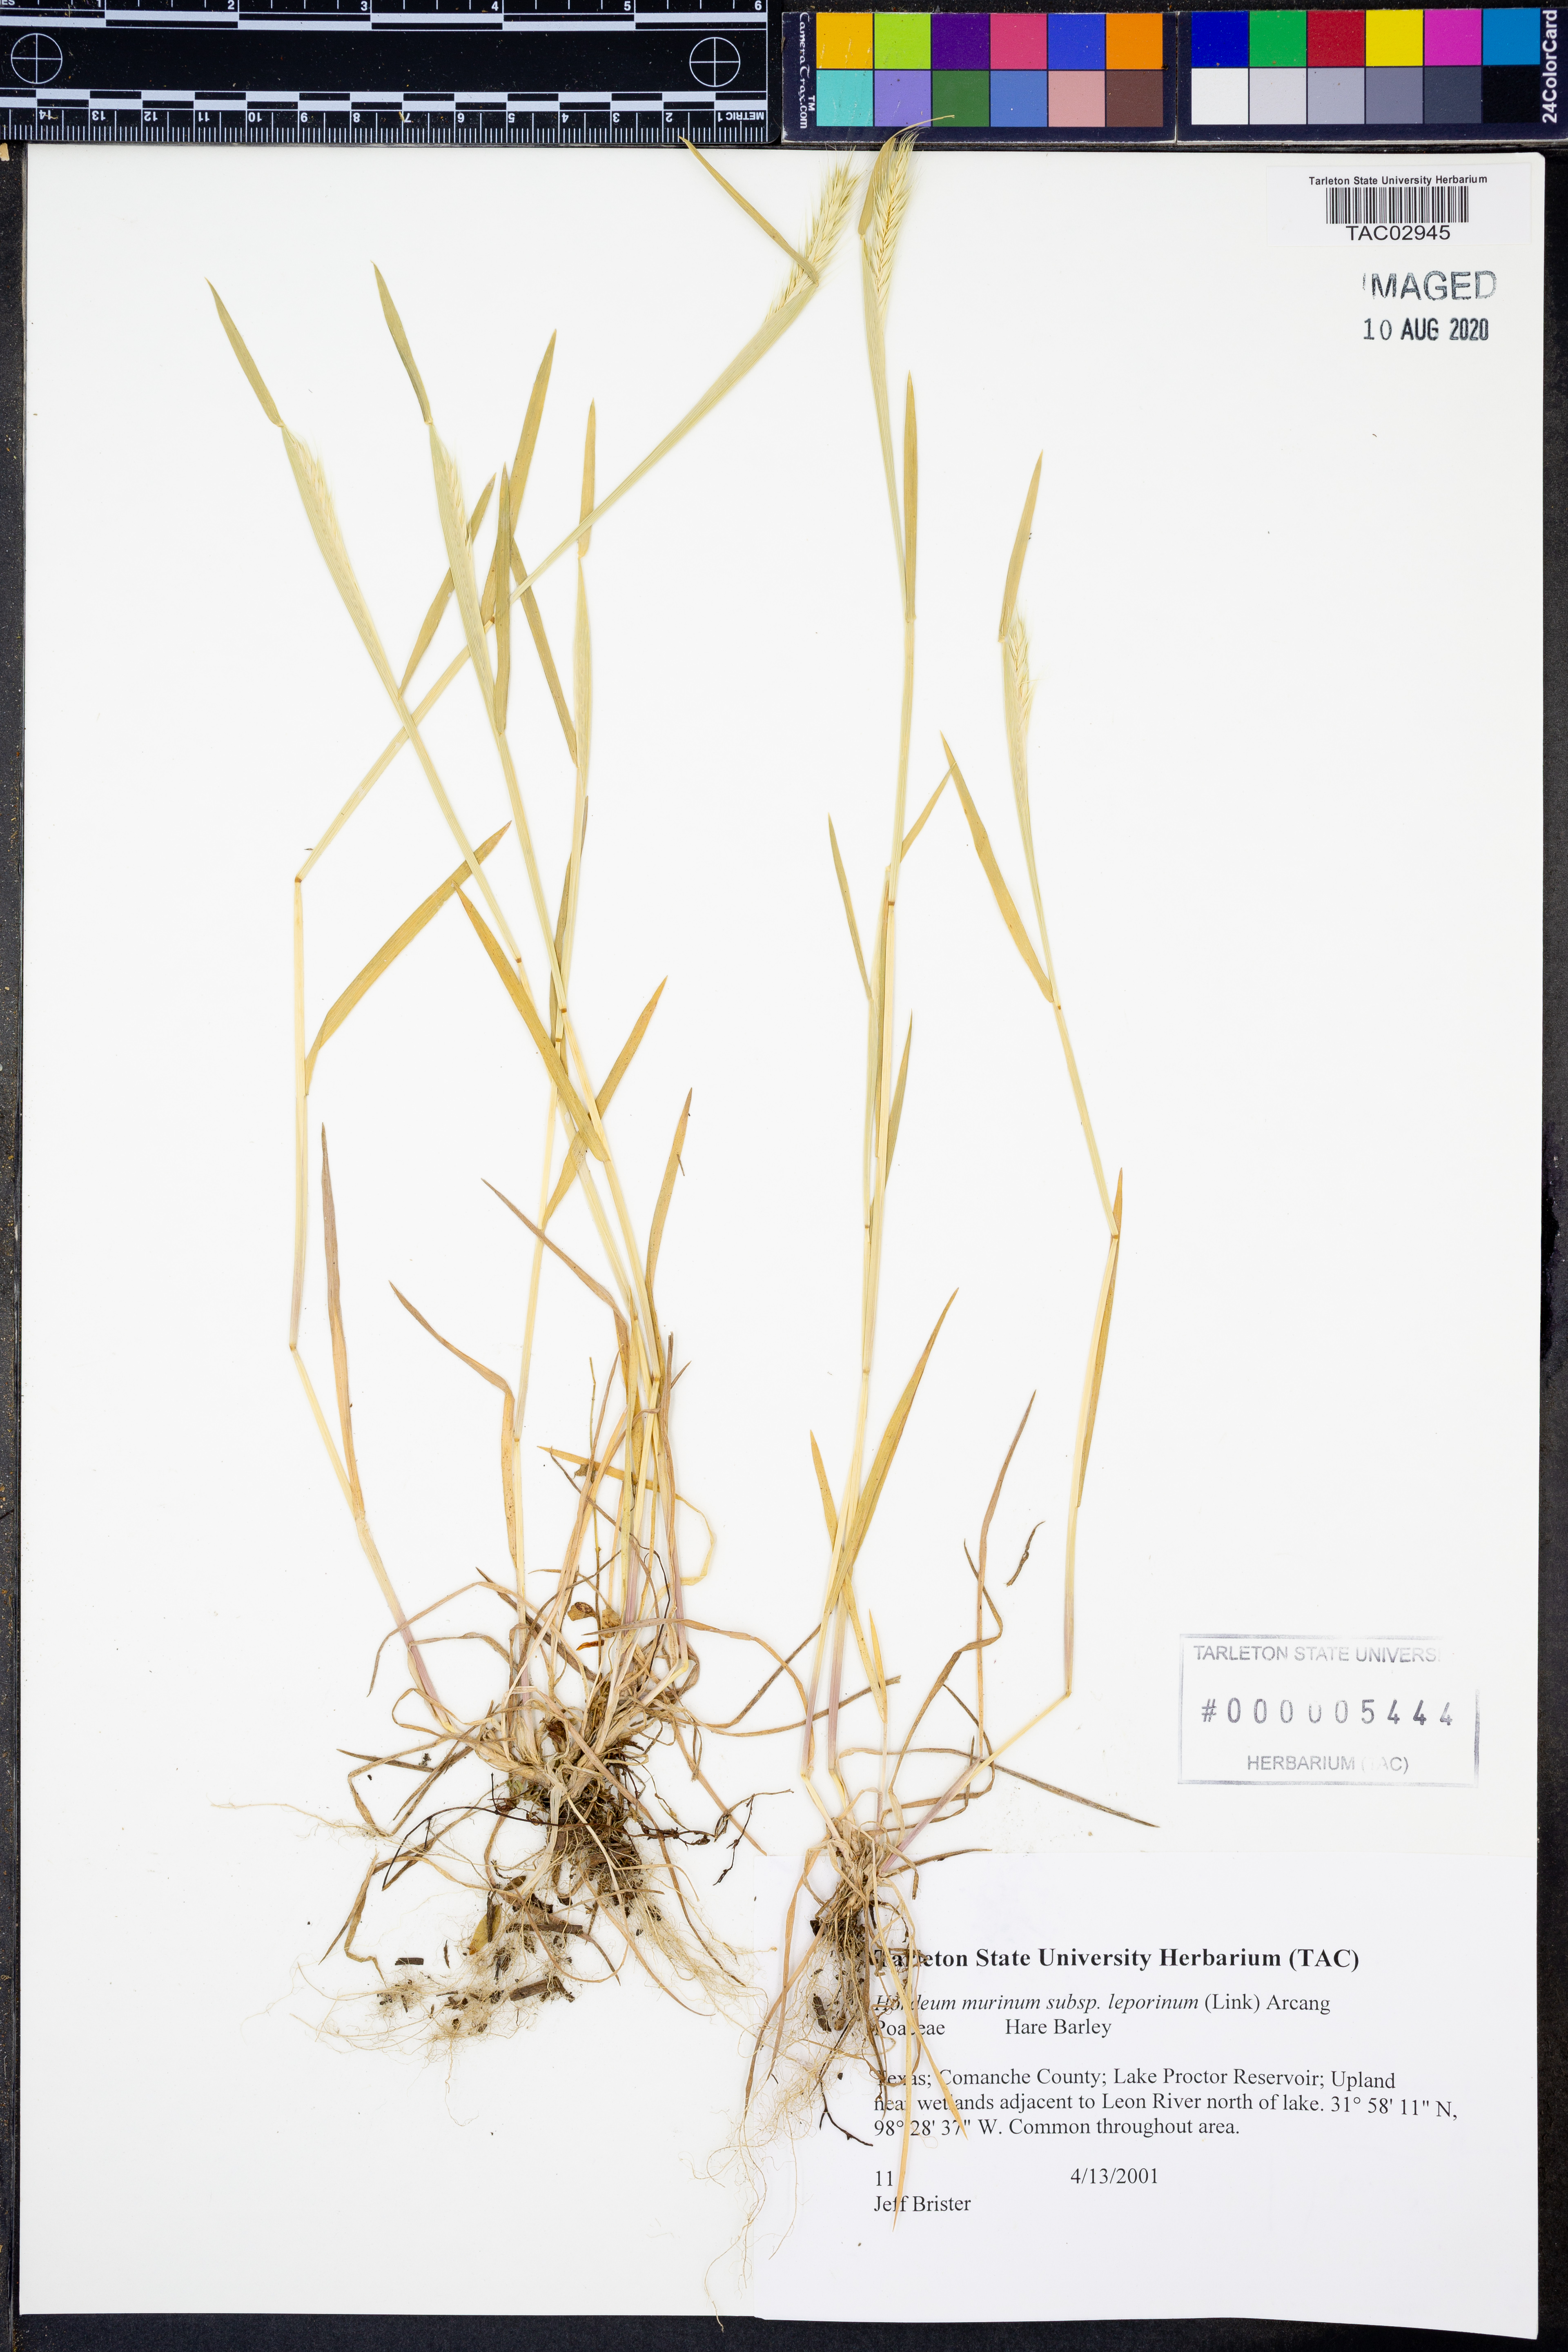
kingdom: Plantae
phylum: Tracheophyta
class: Liliopsida
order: Poales
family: Poaceae
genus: Hordeum
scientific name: Hordeum murinum
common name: Wall barley
